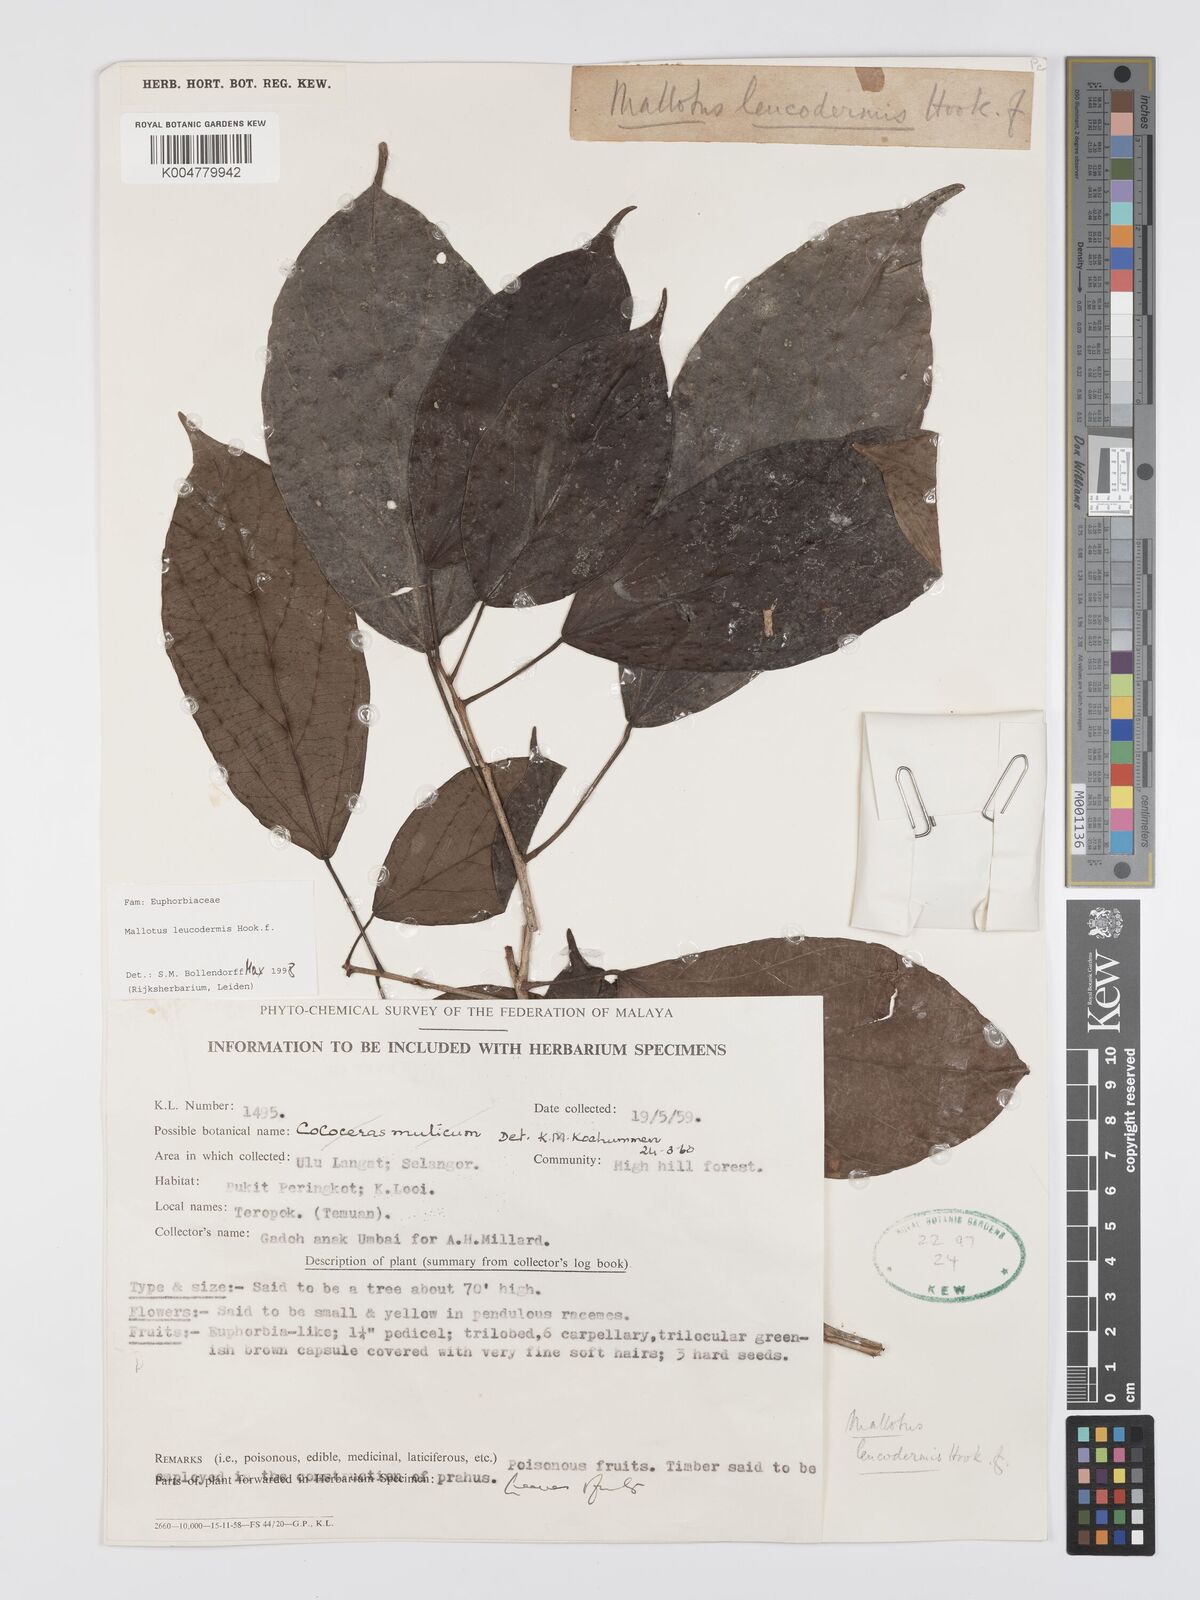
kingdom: Plantae
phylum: Tracheophyta
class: Magnoliopsida
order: Malpighiales
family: Euphorbiaceae
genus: Mallotus
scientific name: Mallotus leucodermis
